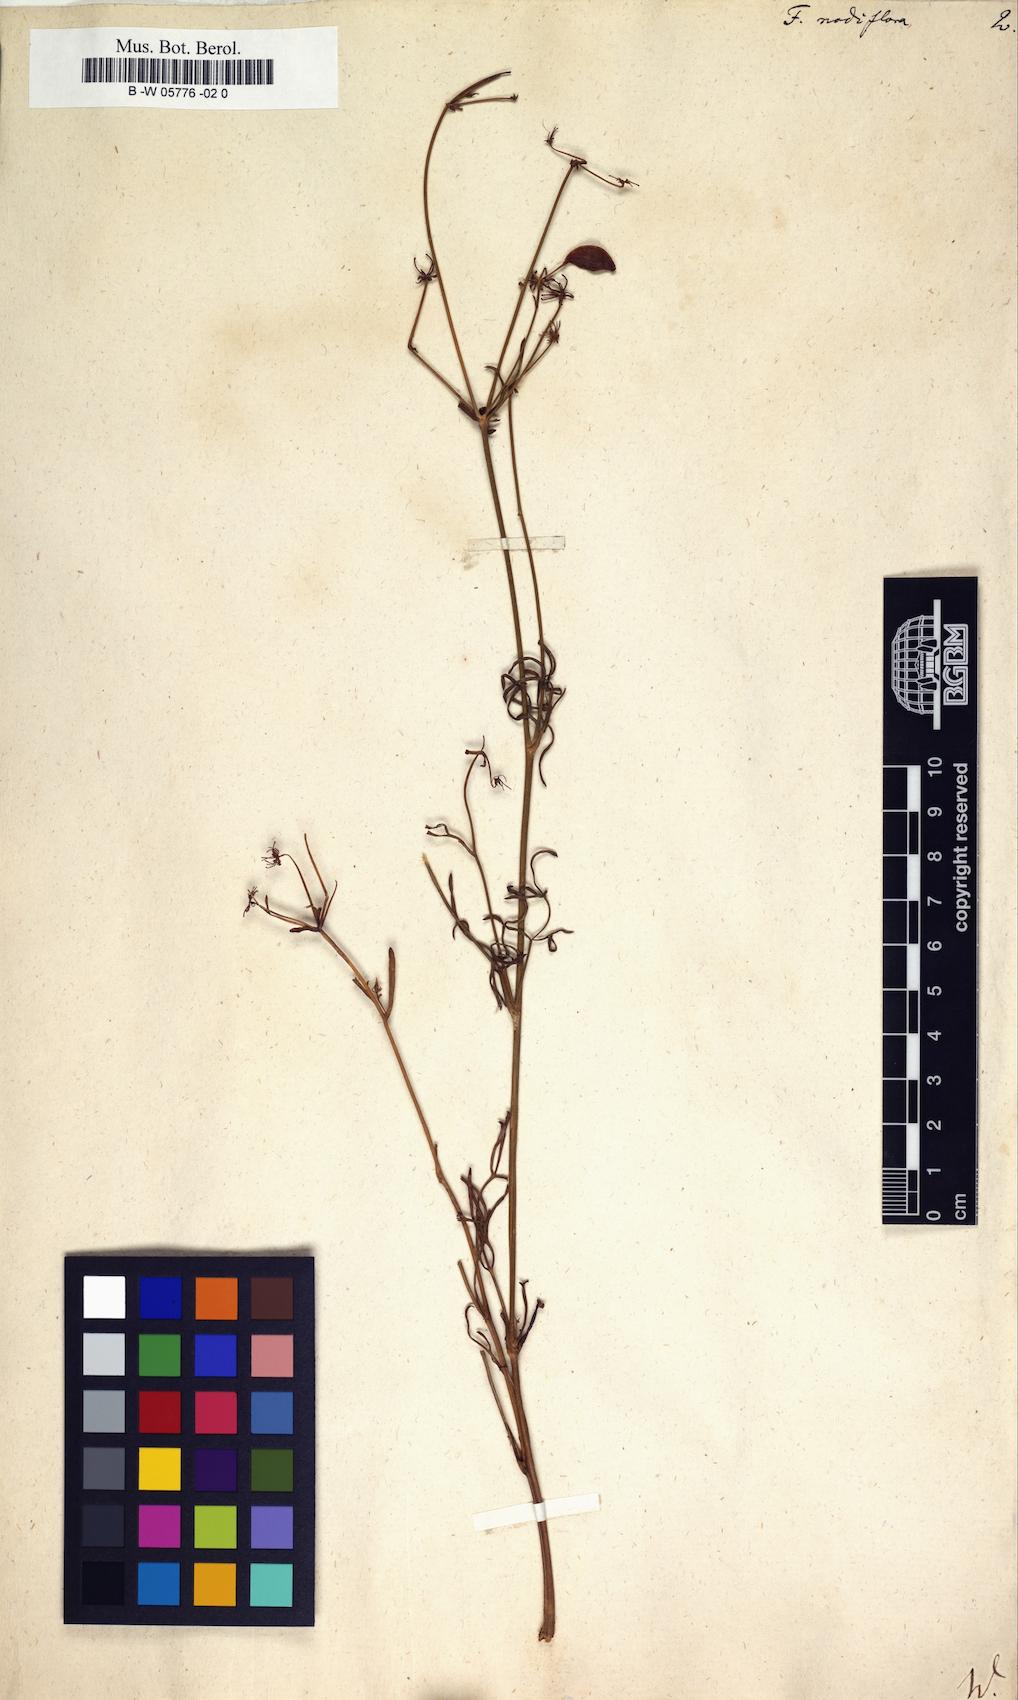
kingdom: Plantae
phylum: Tracheophyta
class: Magnoliopsida
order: Apiales
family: Apiaceae
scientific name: Apiaceae
